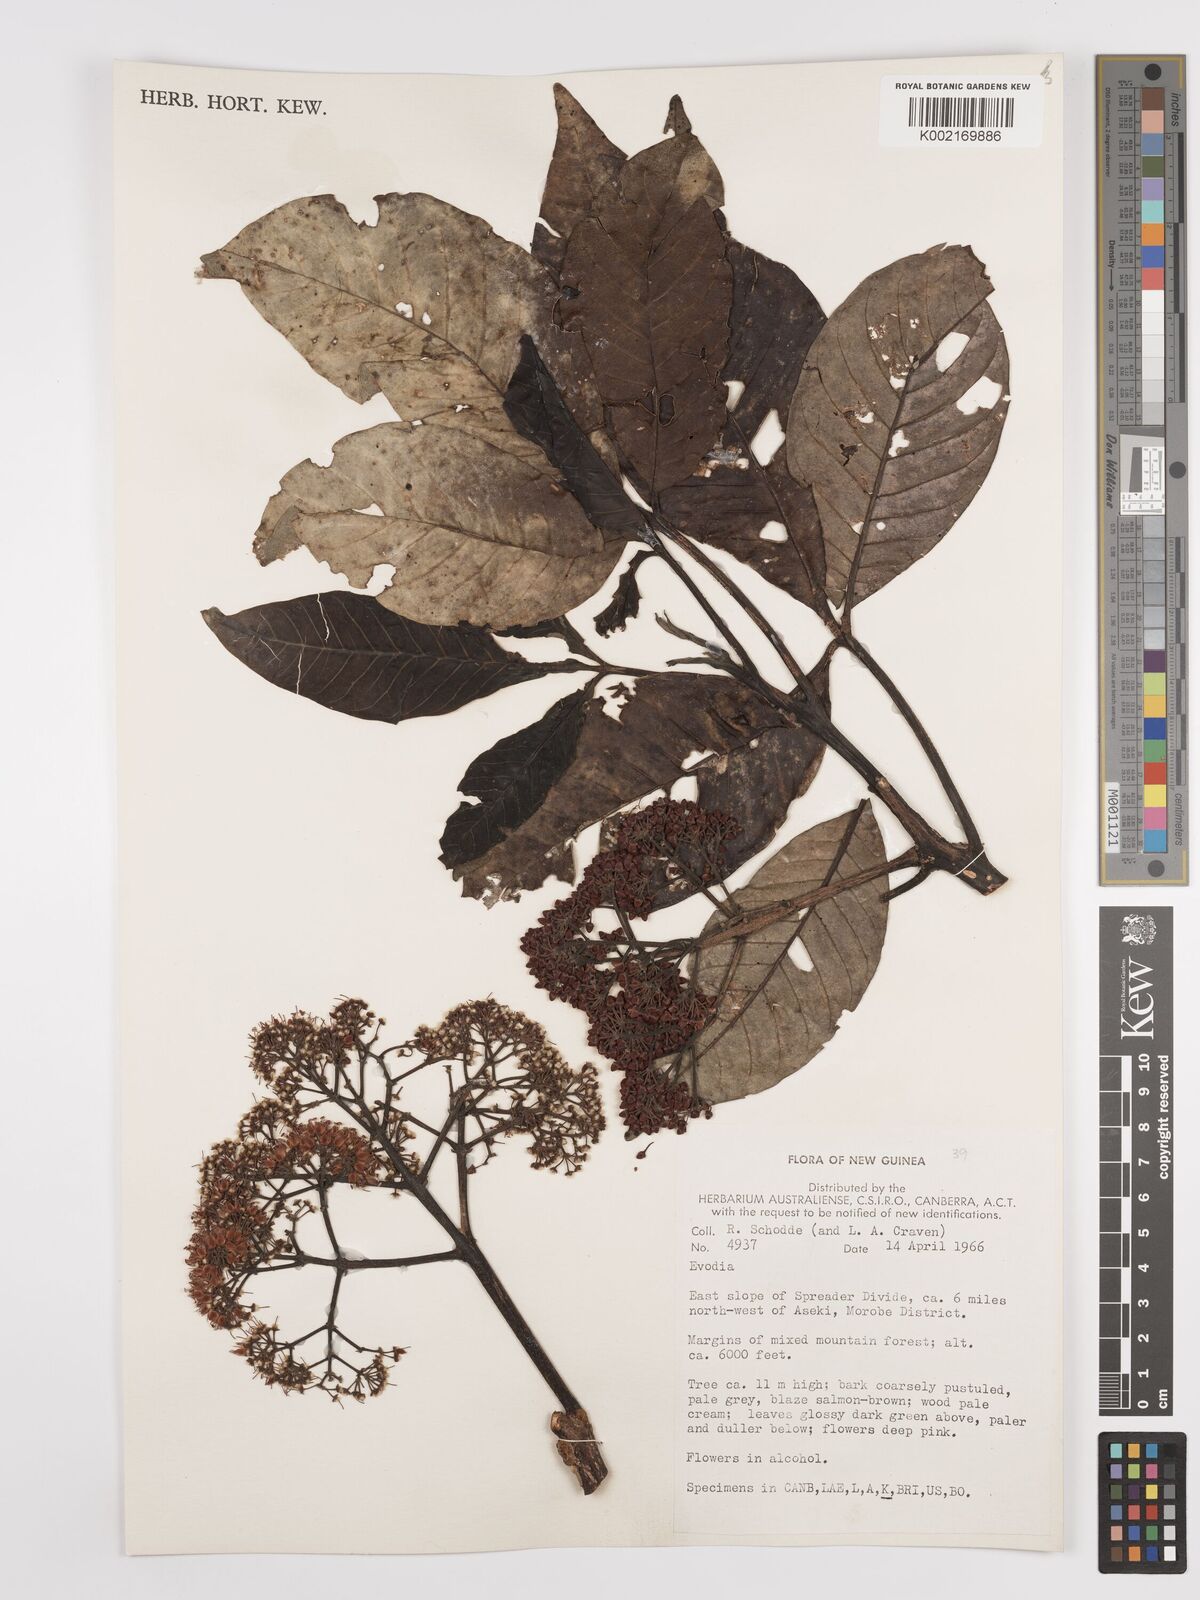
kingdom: Plantae
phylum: Tracheophyta
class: Magnoliopsida
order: Sapindales
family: Rutaceae
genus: Euodia
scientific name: Euodia
